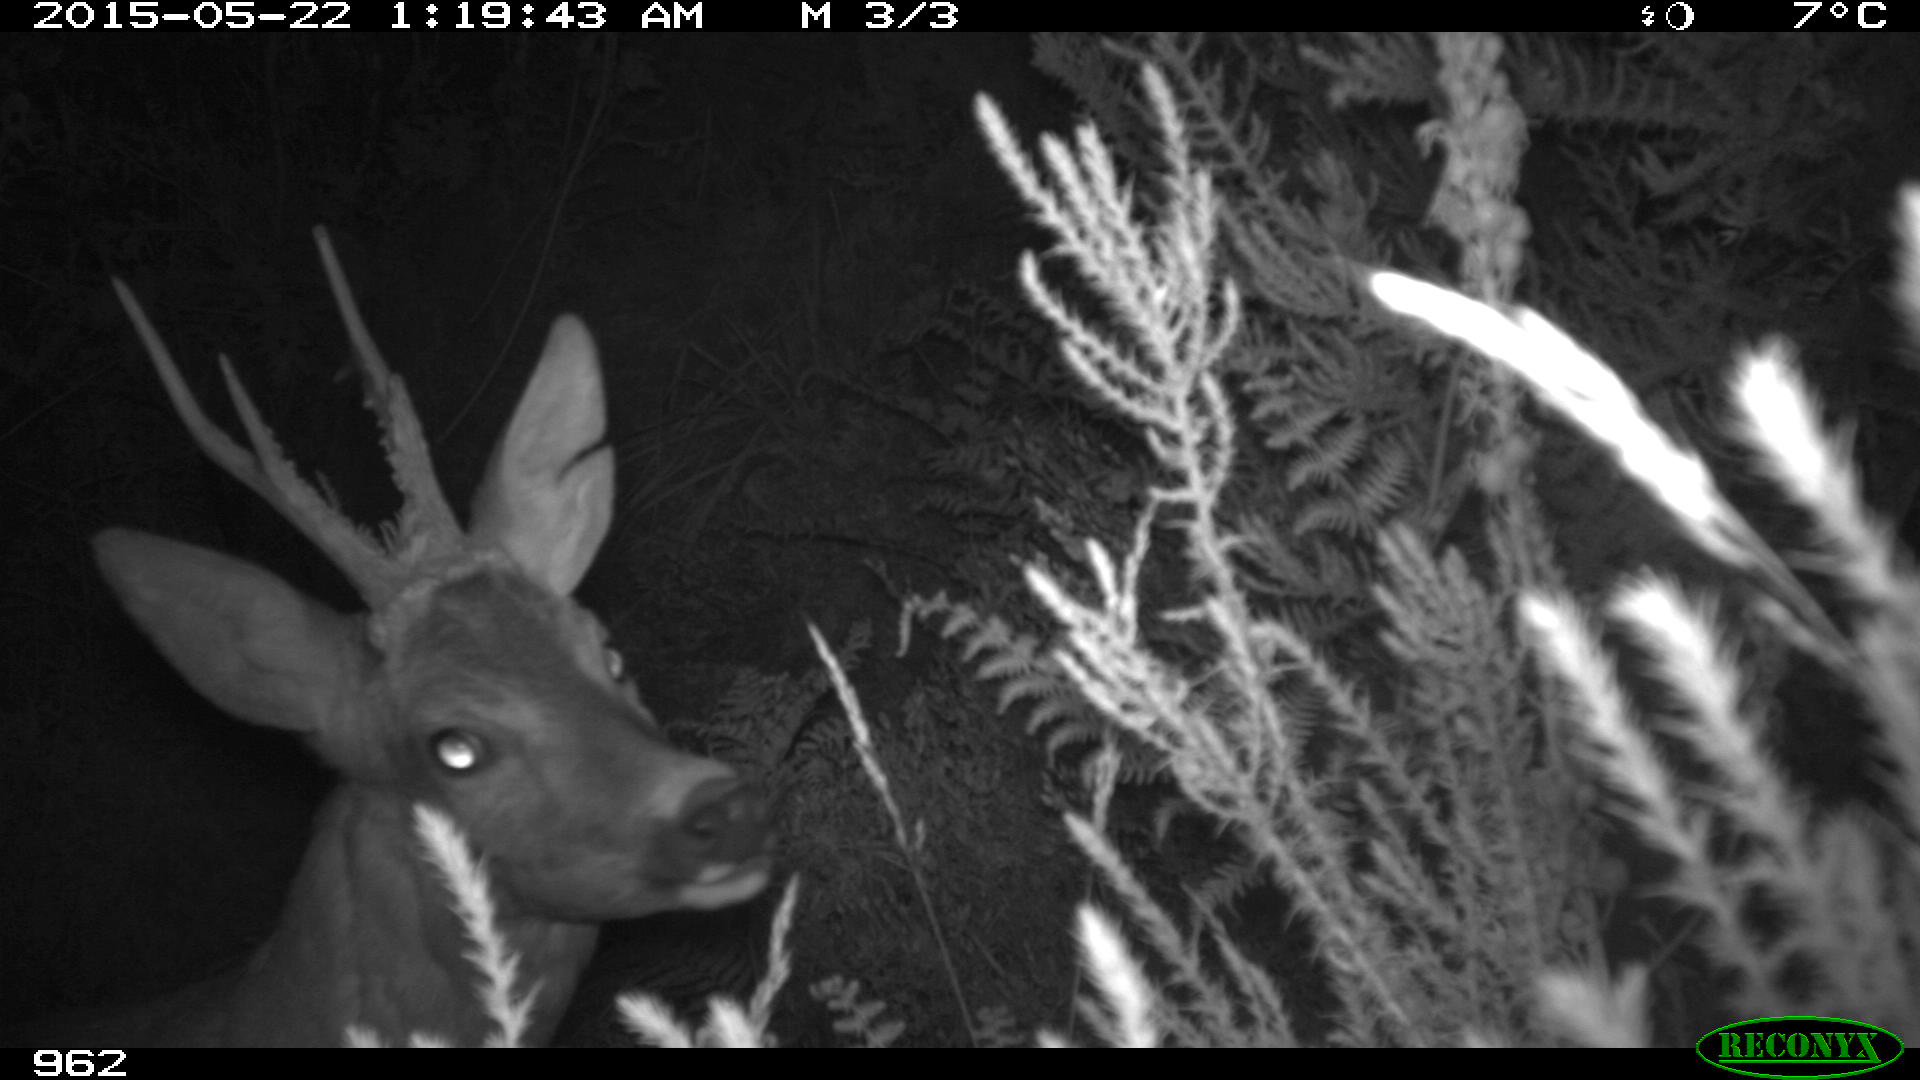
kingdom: Animalia
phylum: Chordata
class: Mammalia
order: Artiodactyla
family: Cervidae
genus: Capreolus
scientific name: Capreolus capreolus
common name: Western roe deer
